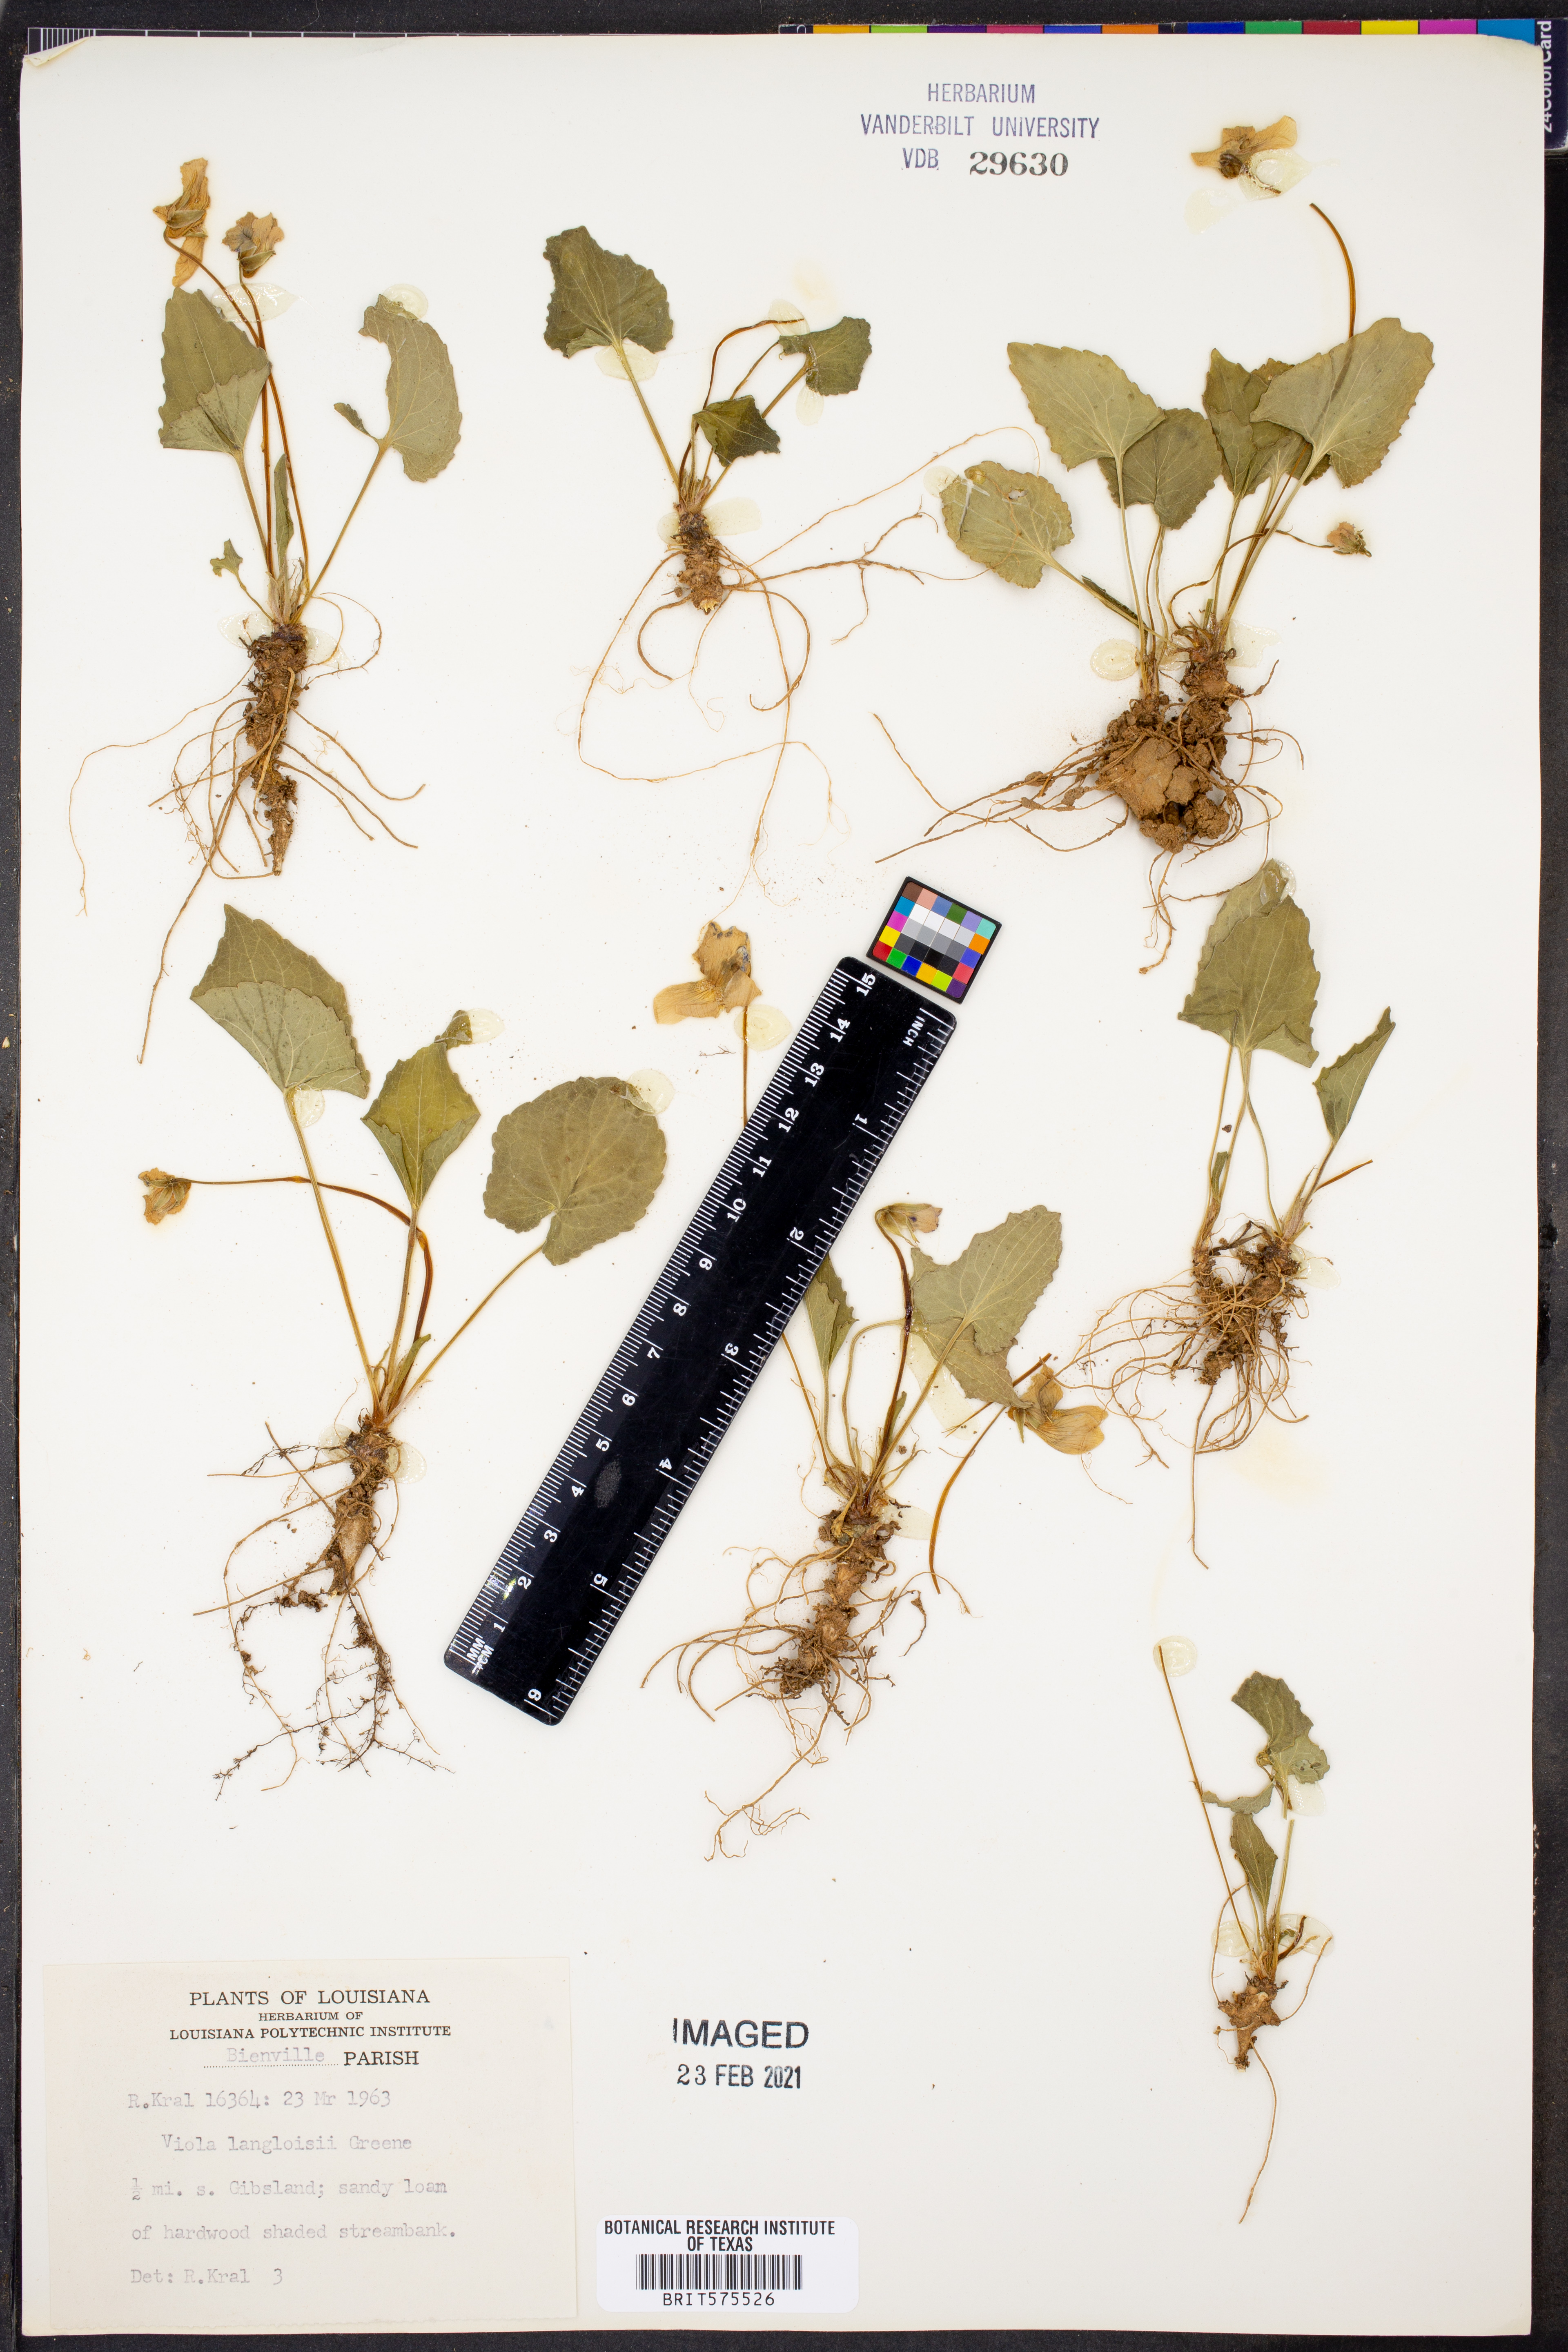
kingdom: Plantae
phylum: Tracheophyta
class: Magnoliopsida
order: Malpighiales
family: Violaceae
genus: Viola
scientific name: Viola langloisii
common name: Langlois' violet
